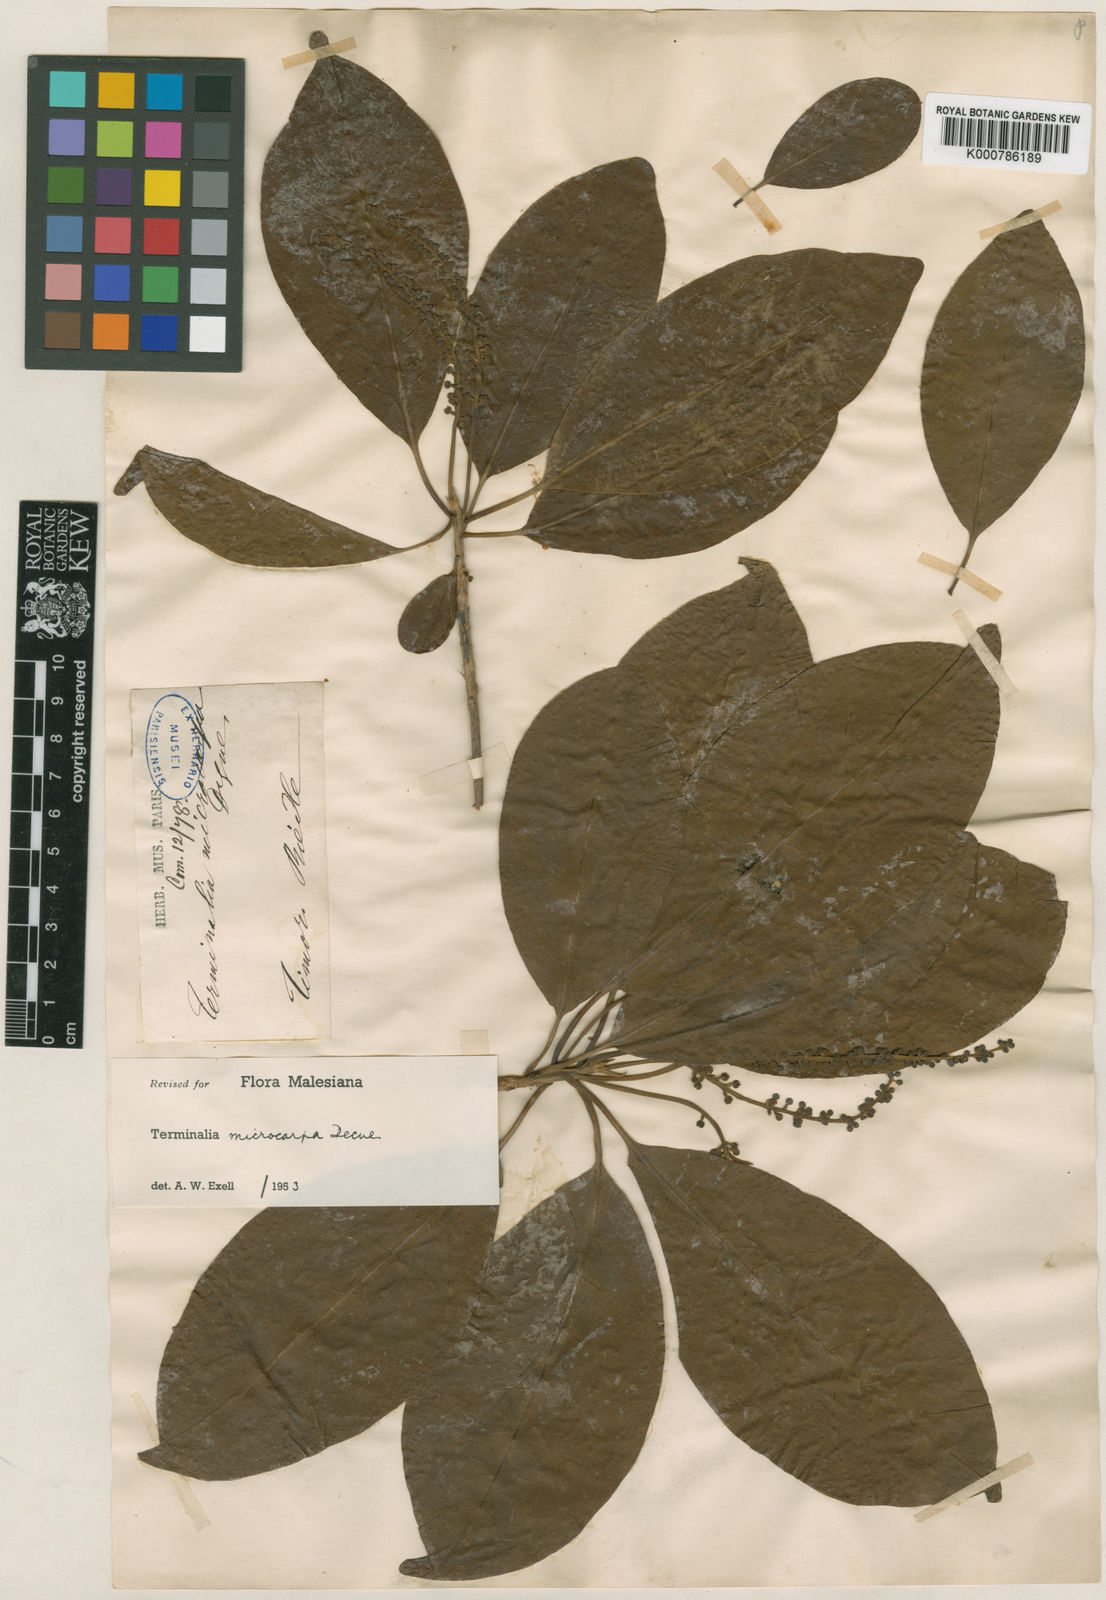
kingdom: Plantae
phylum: Tracheophyta
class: Magnoliopsida
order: Myrtales
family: Combretaceae
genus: Terminalia
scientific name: Terminalia microcarpa
